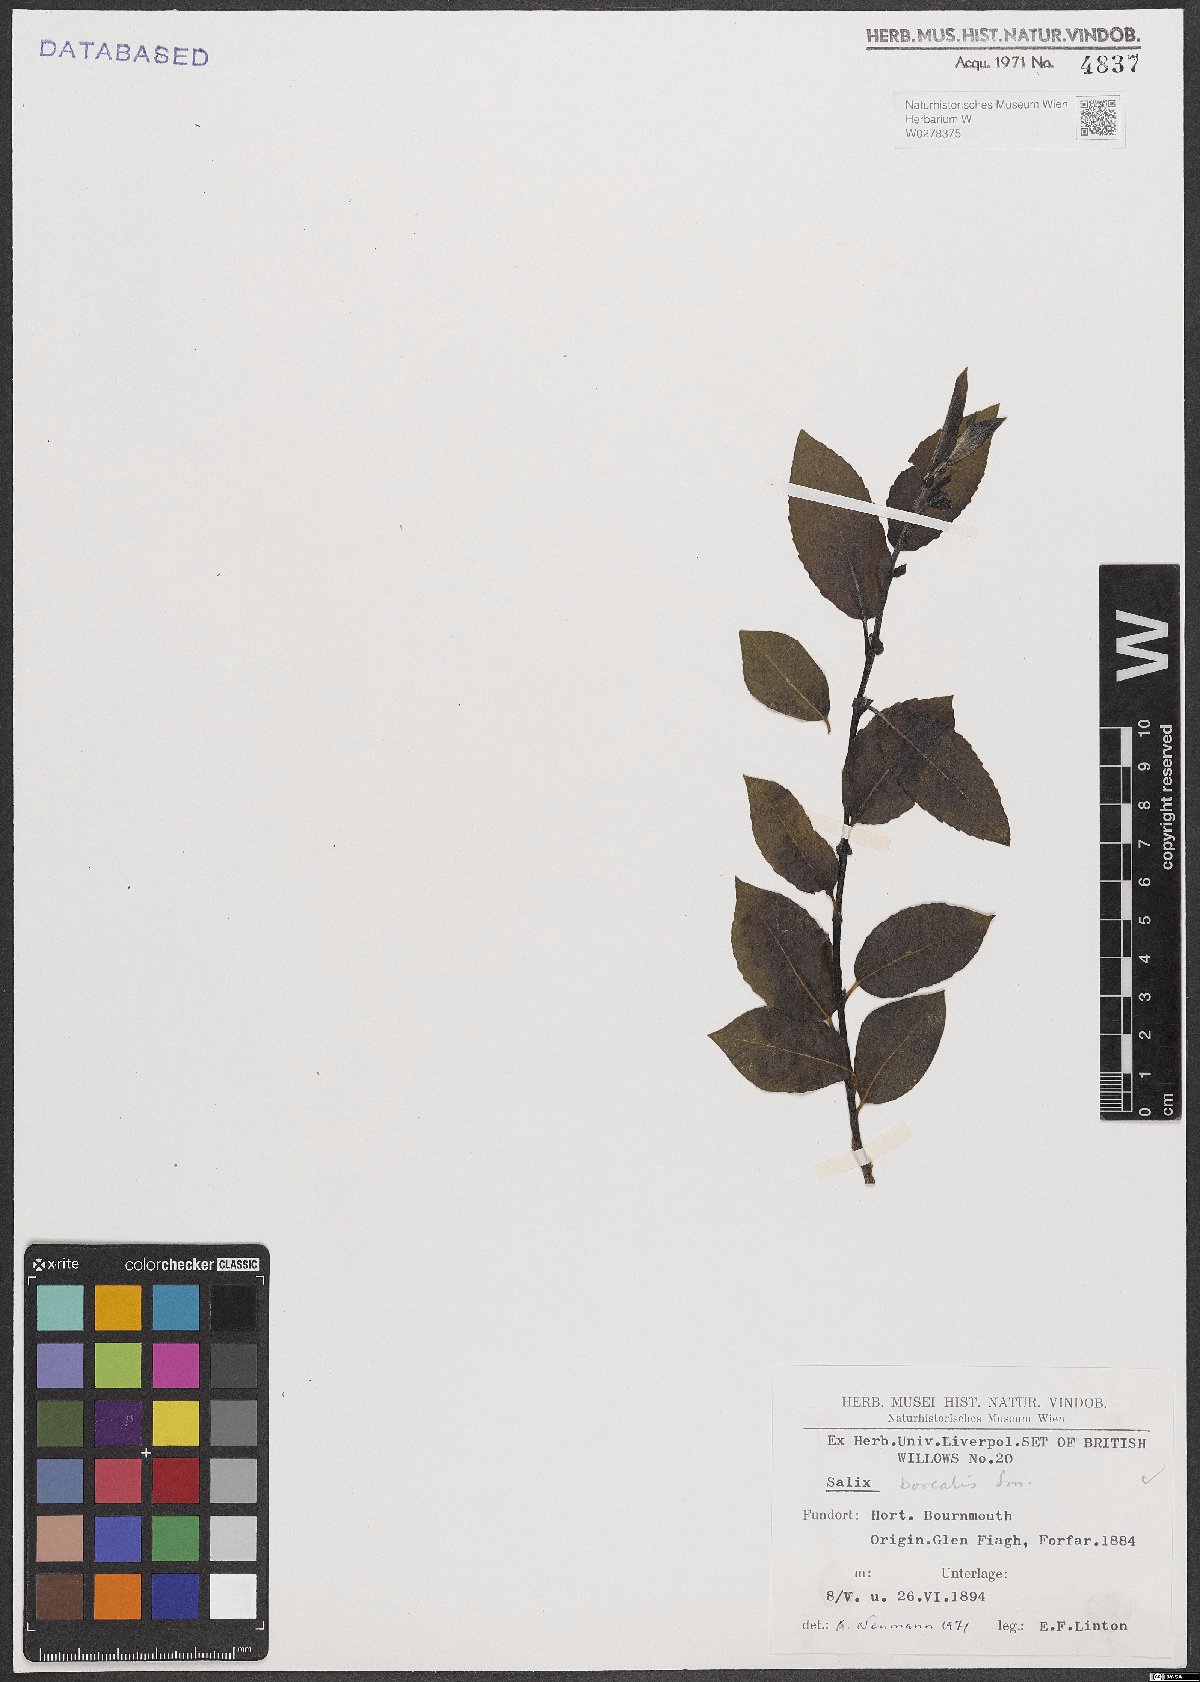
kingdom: Plantae
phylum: Tracheophyta
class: Magnoliopsida
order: Malpighiales
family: Salicaceae
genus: Salix
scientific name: Salix myrsinifolia
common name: Dark-leaved willow
